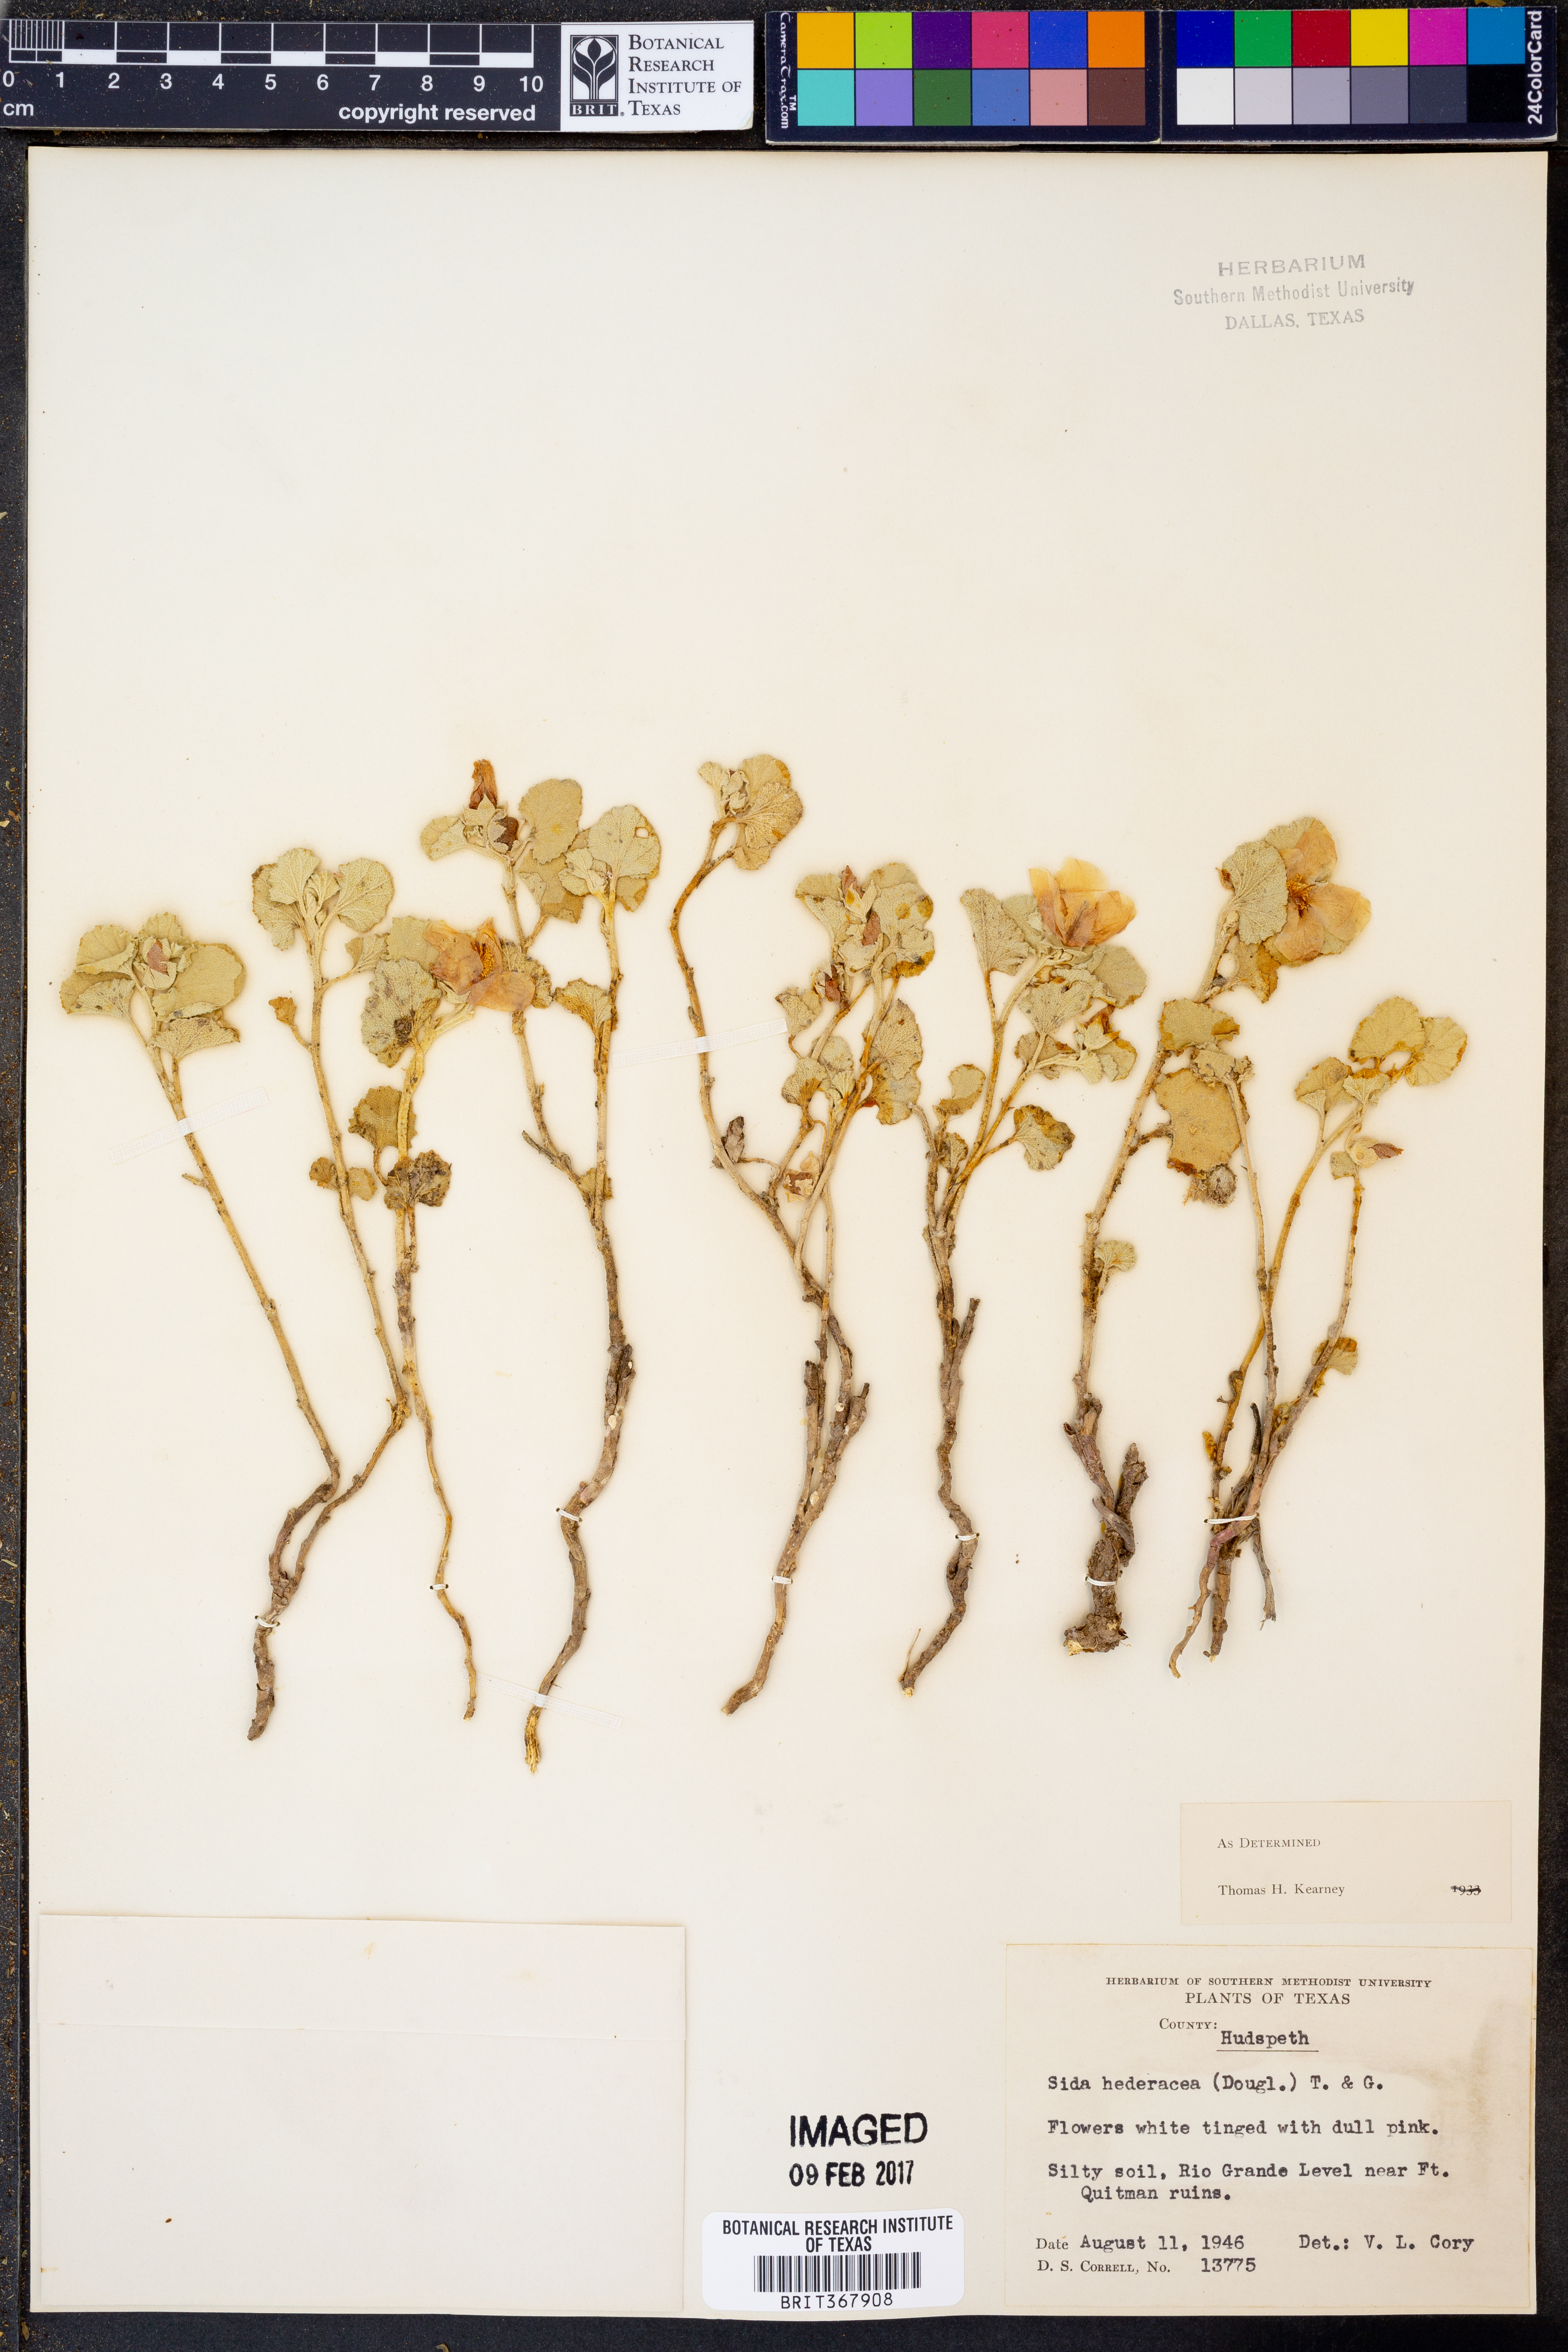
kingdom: Plantae
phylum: Tracheophyta
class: Magnoliopsida
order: Malvales
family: Malvaceae
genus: Malvella
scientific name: Malvella leprosa
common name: Alkali-mallow
